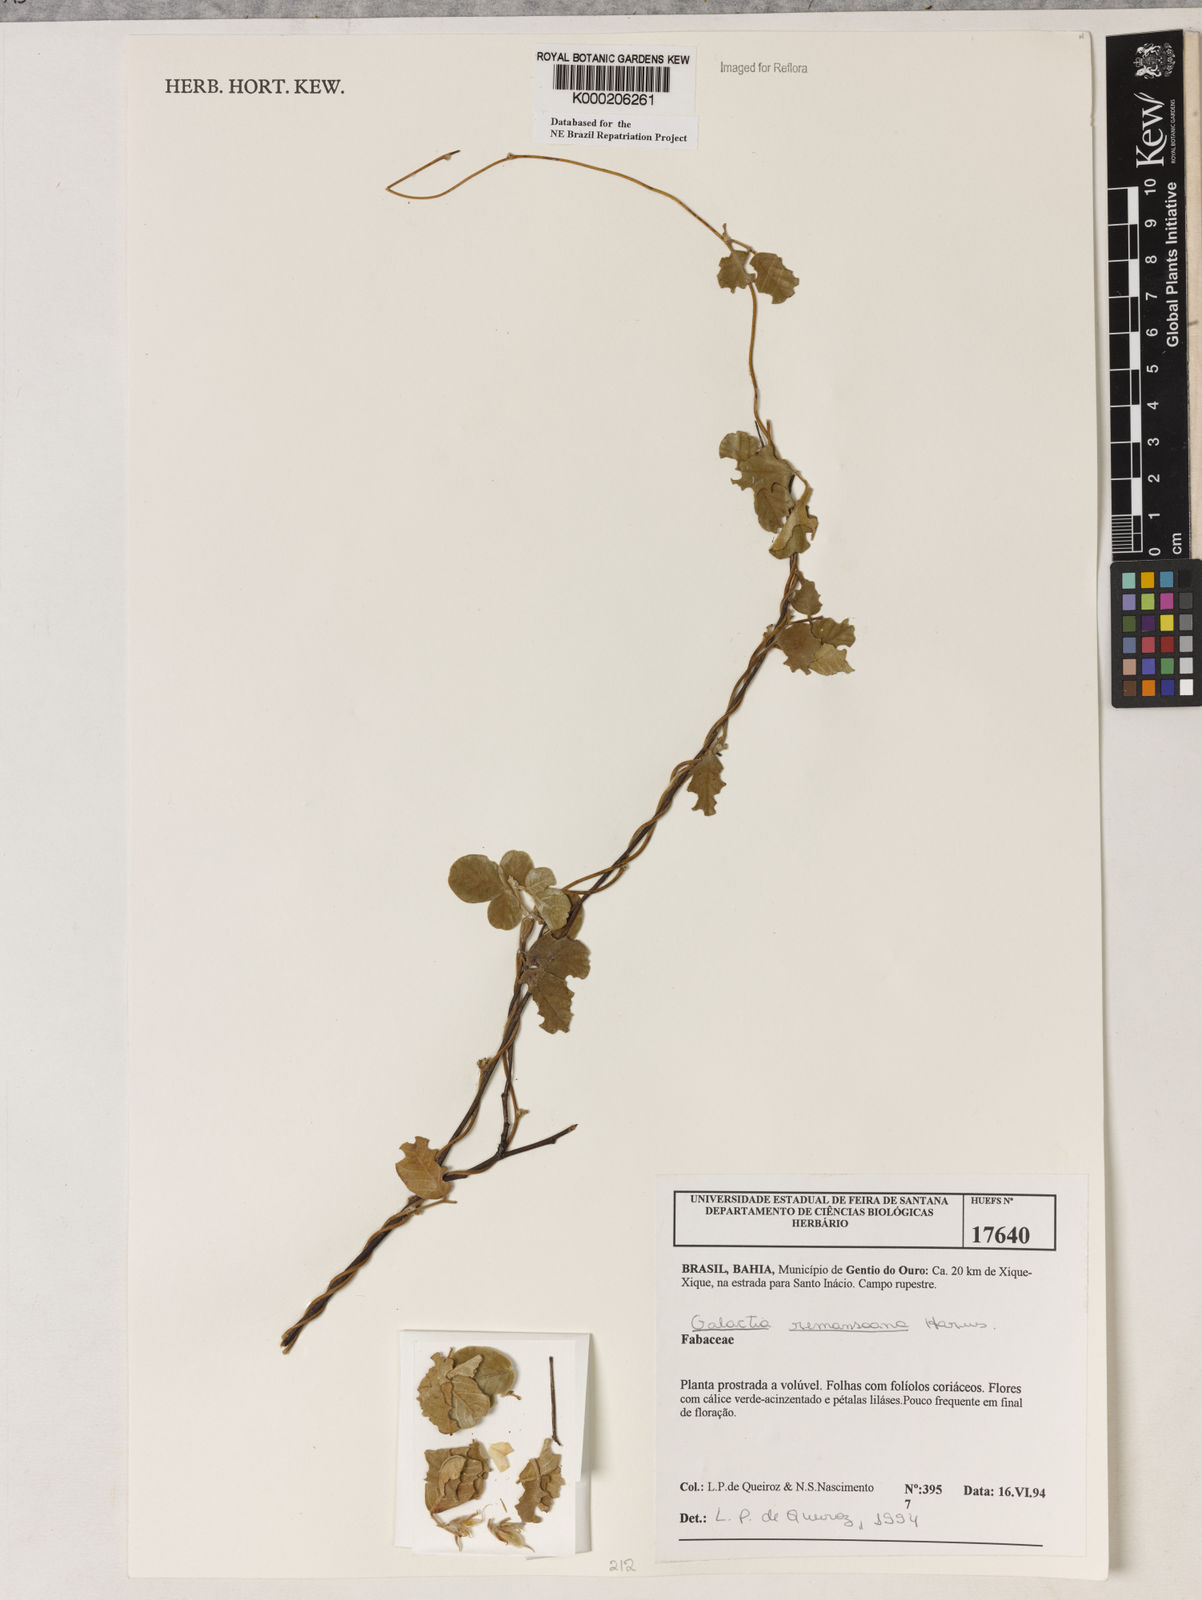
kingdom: Plantae
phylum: Tracheophyta
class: Magnoliopsida
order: Fabales
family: Fabaceae
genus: Galactia
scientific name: Galactia remansoana
